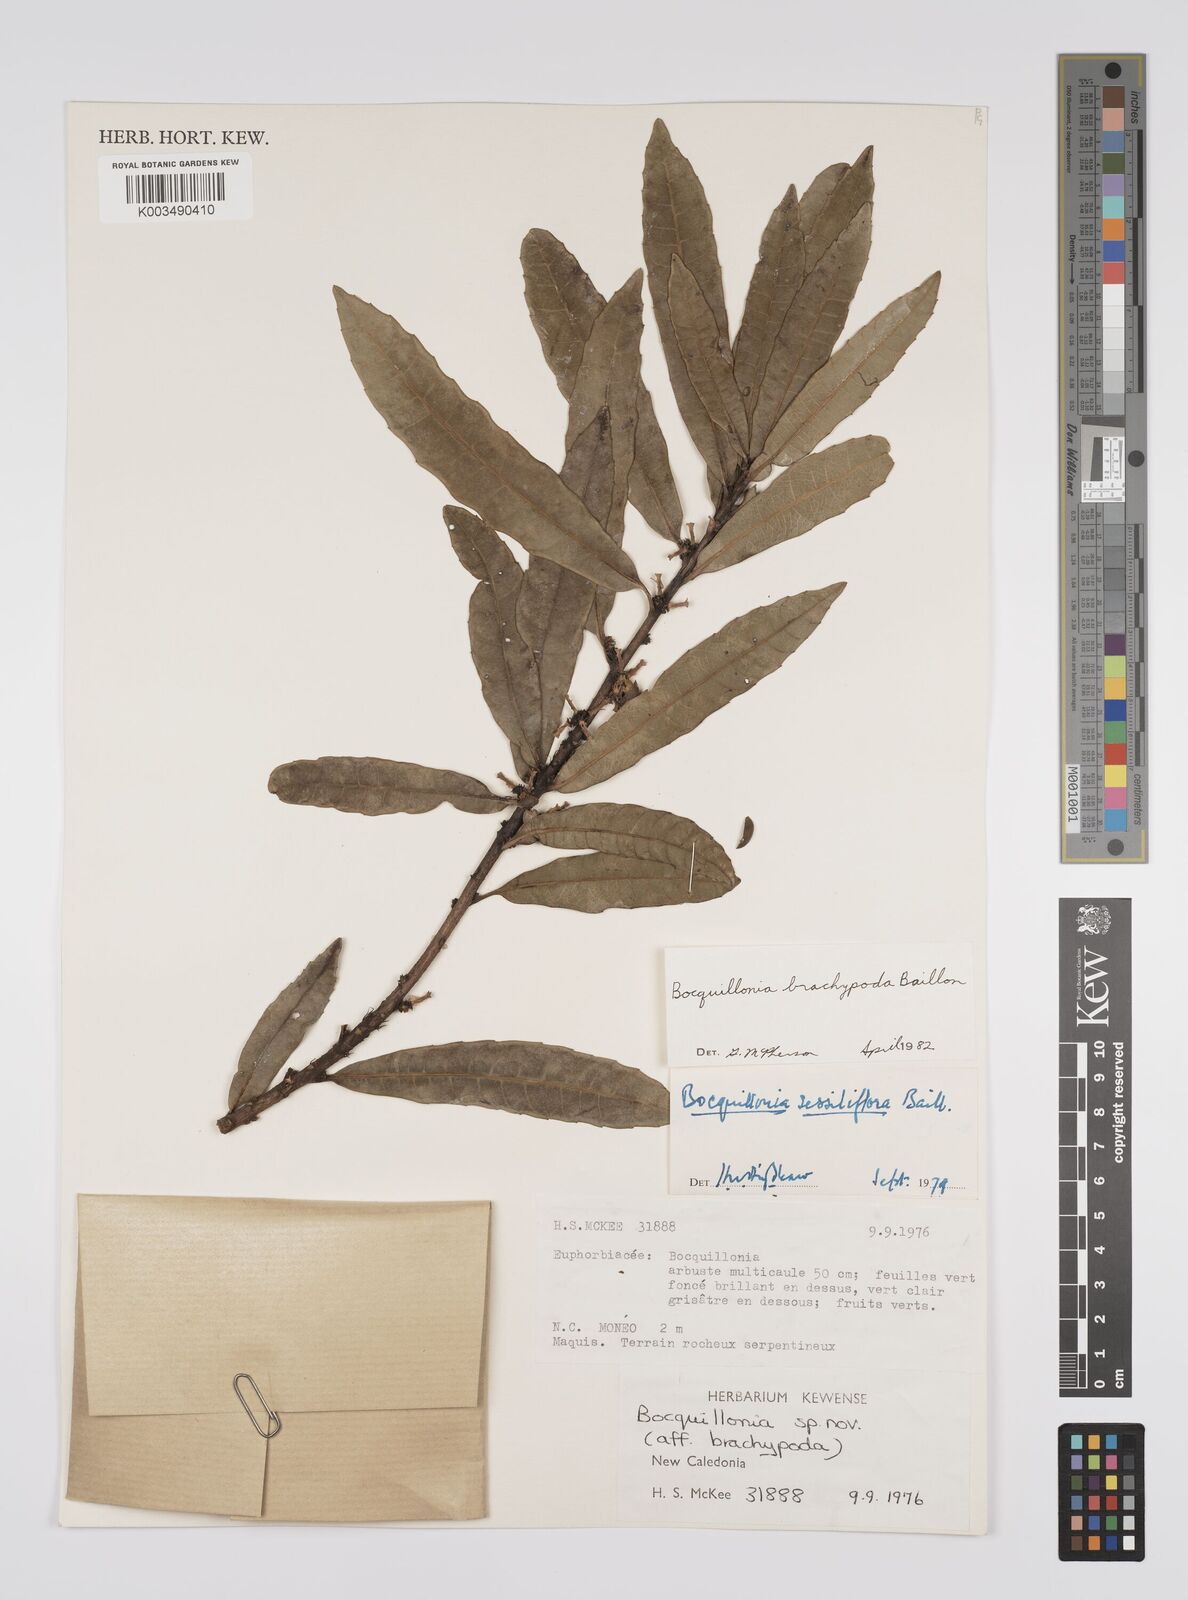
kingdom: Plantae
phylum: Tracheophyta
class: Magnoliopsida
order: Malpighiales
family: Euphorbiaceae
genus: Bocquillonia
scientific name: Bocquillonia brachypoda
